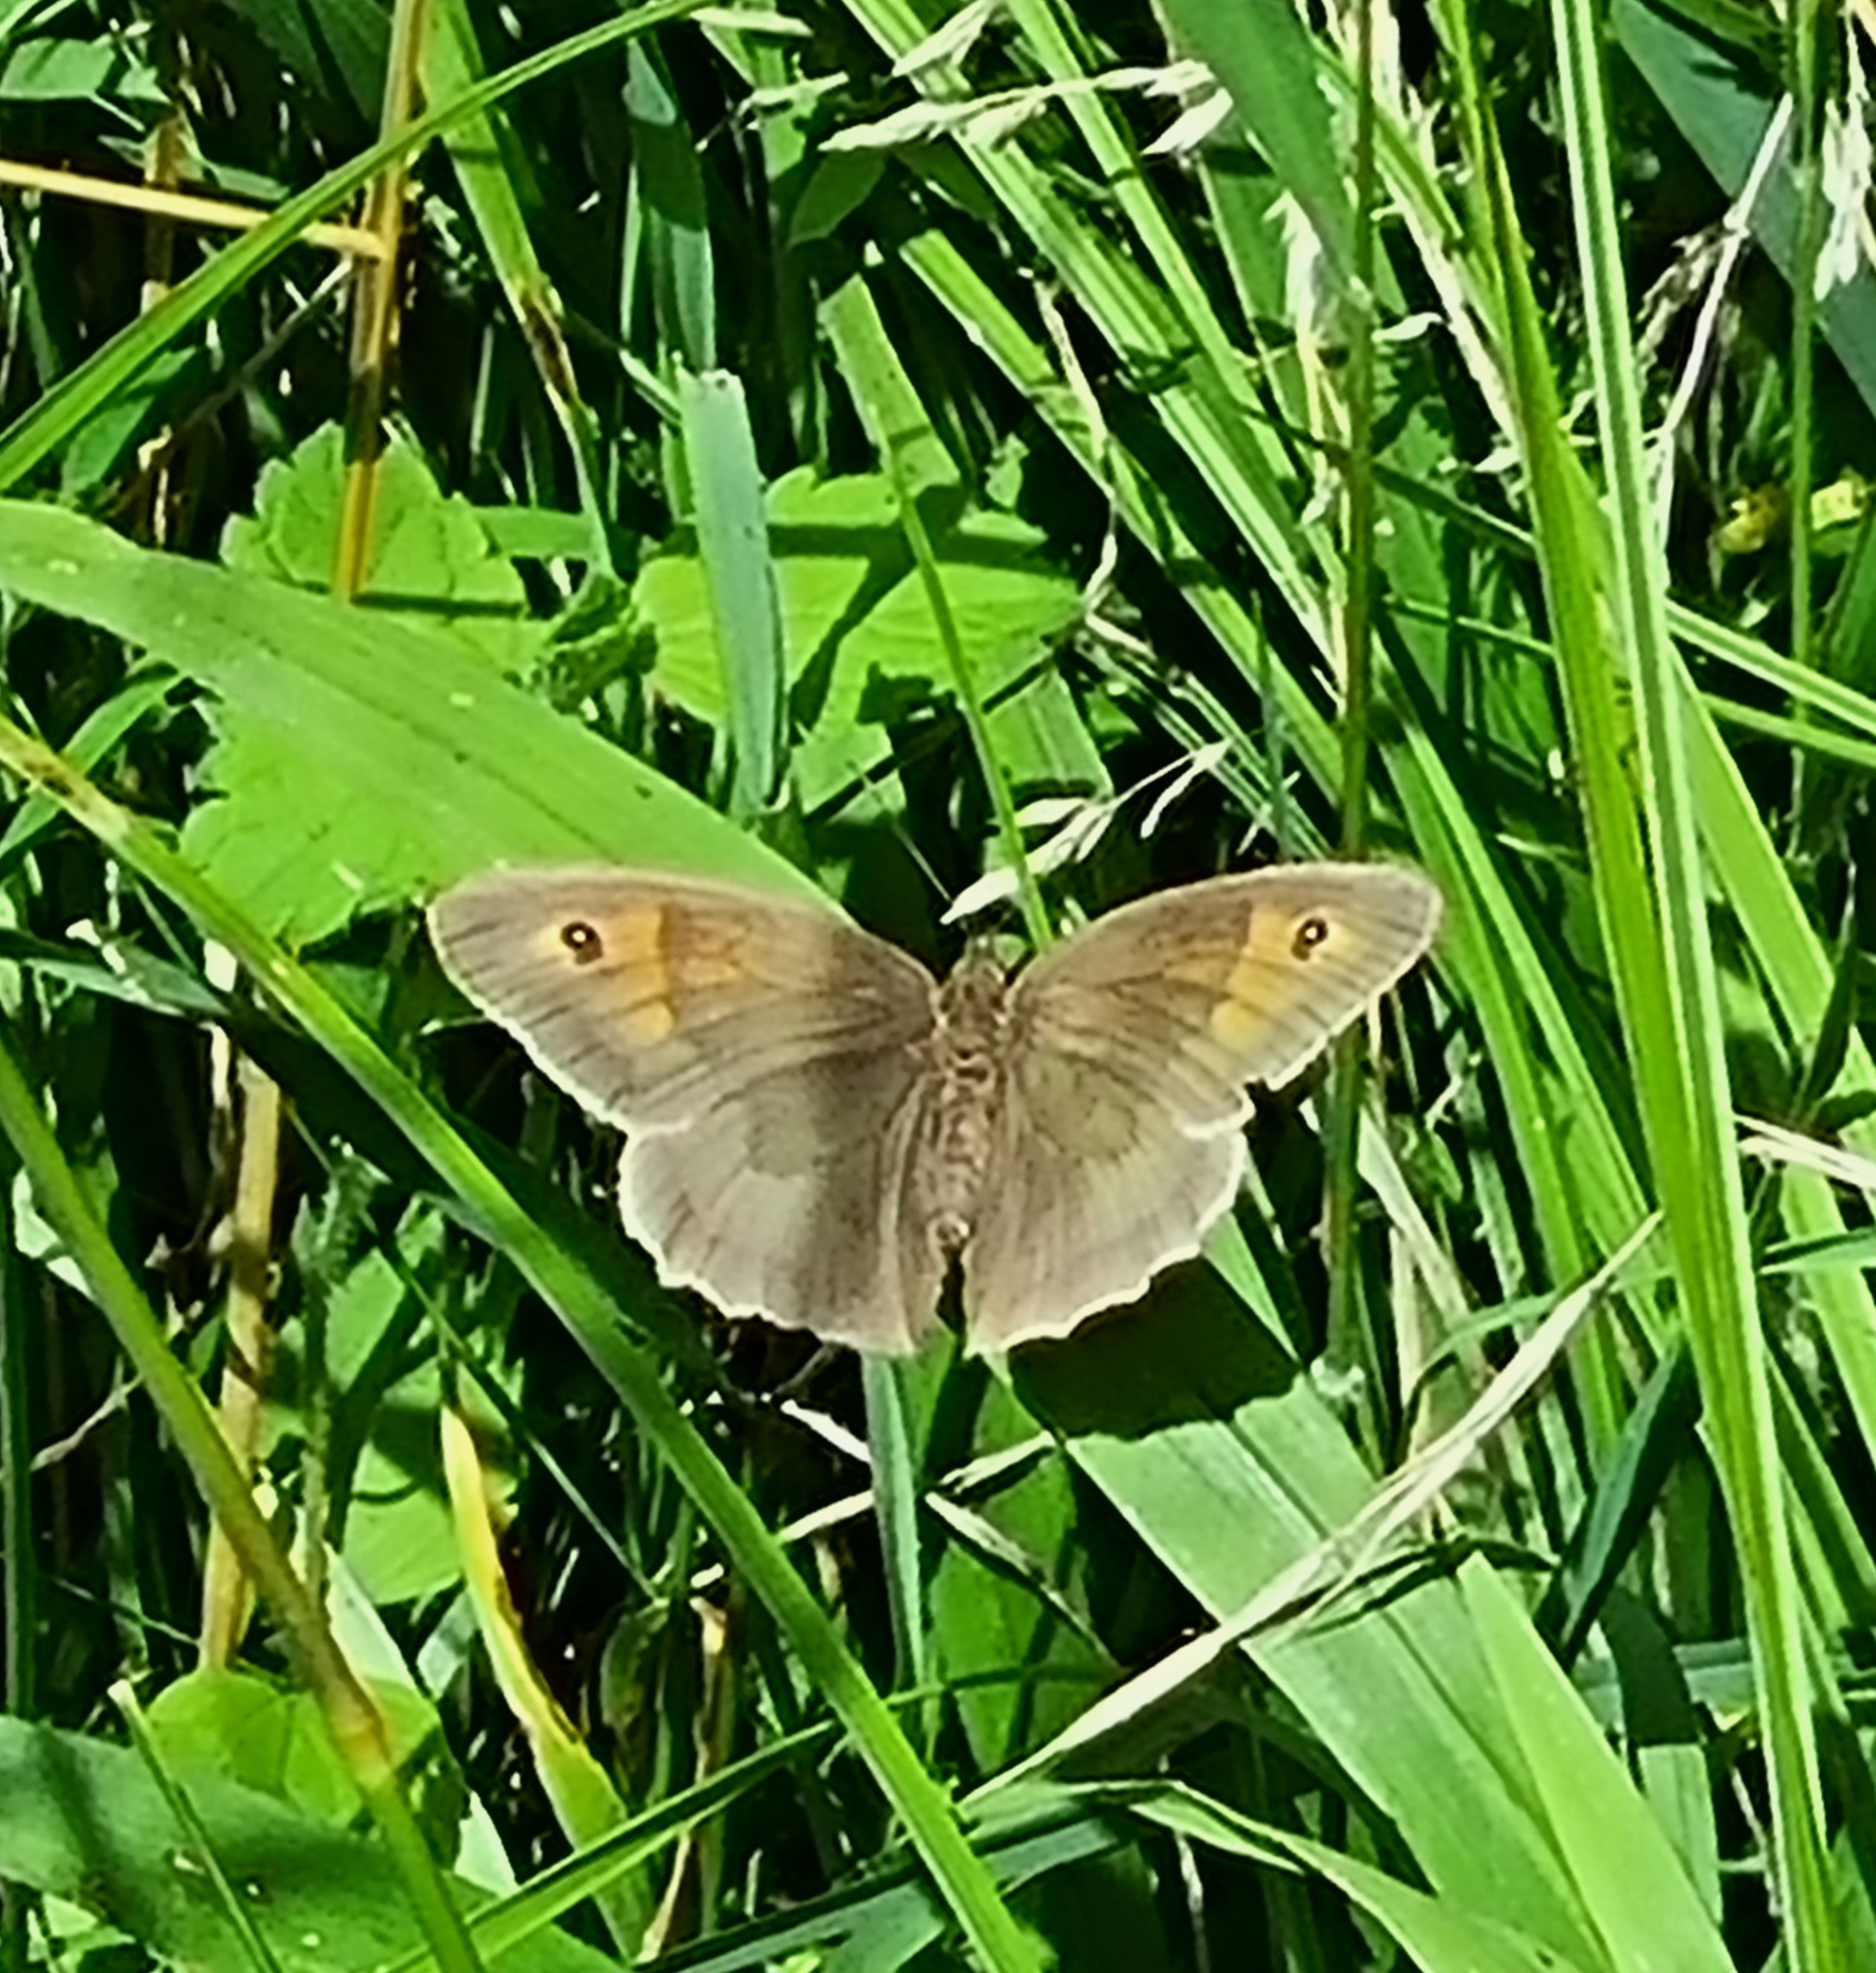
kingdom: Animalia
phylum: Arthropoda
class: Insecta
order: Lepidoptera
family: Nymphalidae
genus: Maniola
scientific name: Maniola jurtina
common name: Græsrandøje
